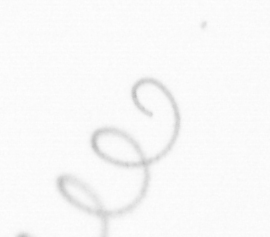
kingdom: Chromista
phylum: Ochrophyta
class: Bacillariophyceae
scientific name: Bacillariophyceae
